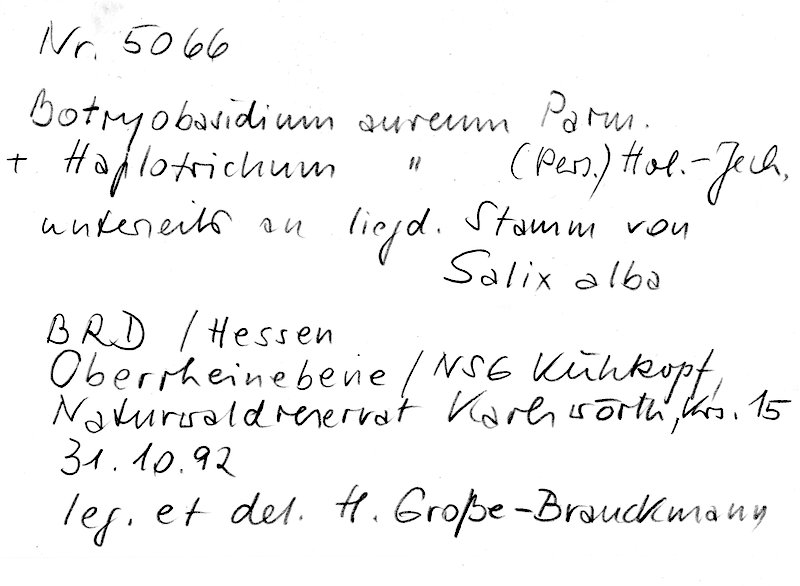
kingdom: Plantae
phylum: Tracheophyta
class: Magnoliopsida
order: Malpighiales
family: Salicaceae
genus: Salix
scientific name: Salix alba
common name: White willow
